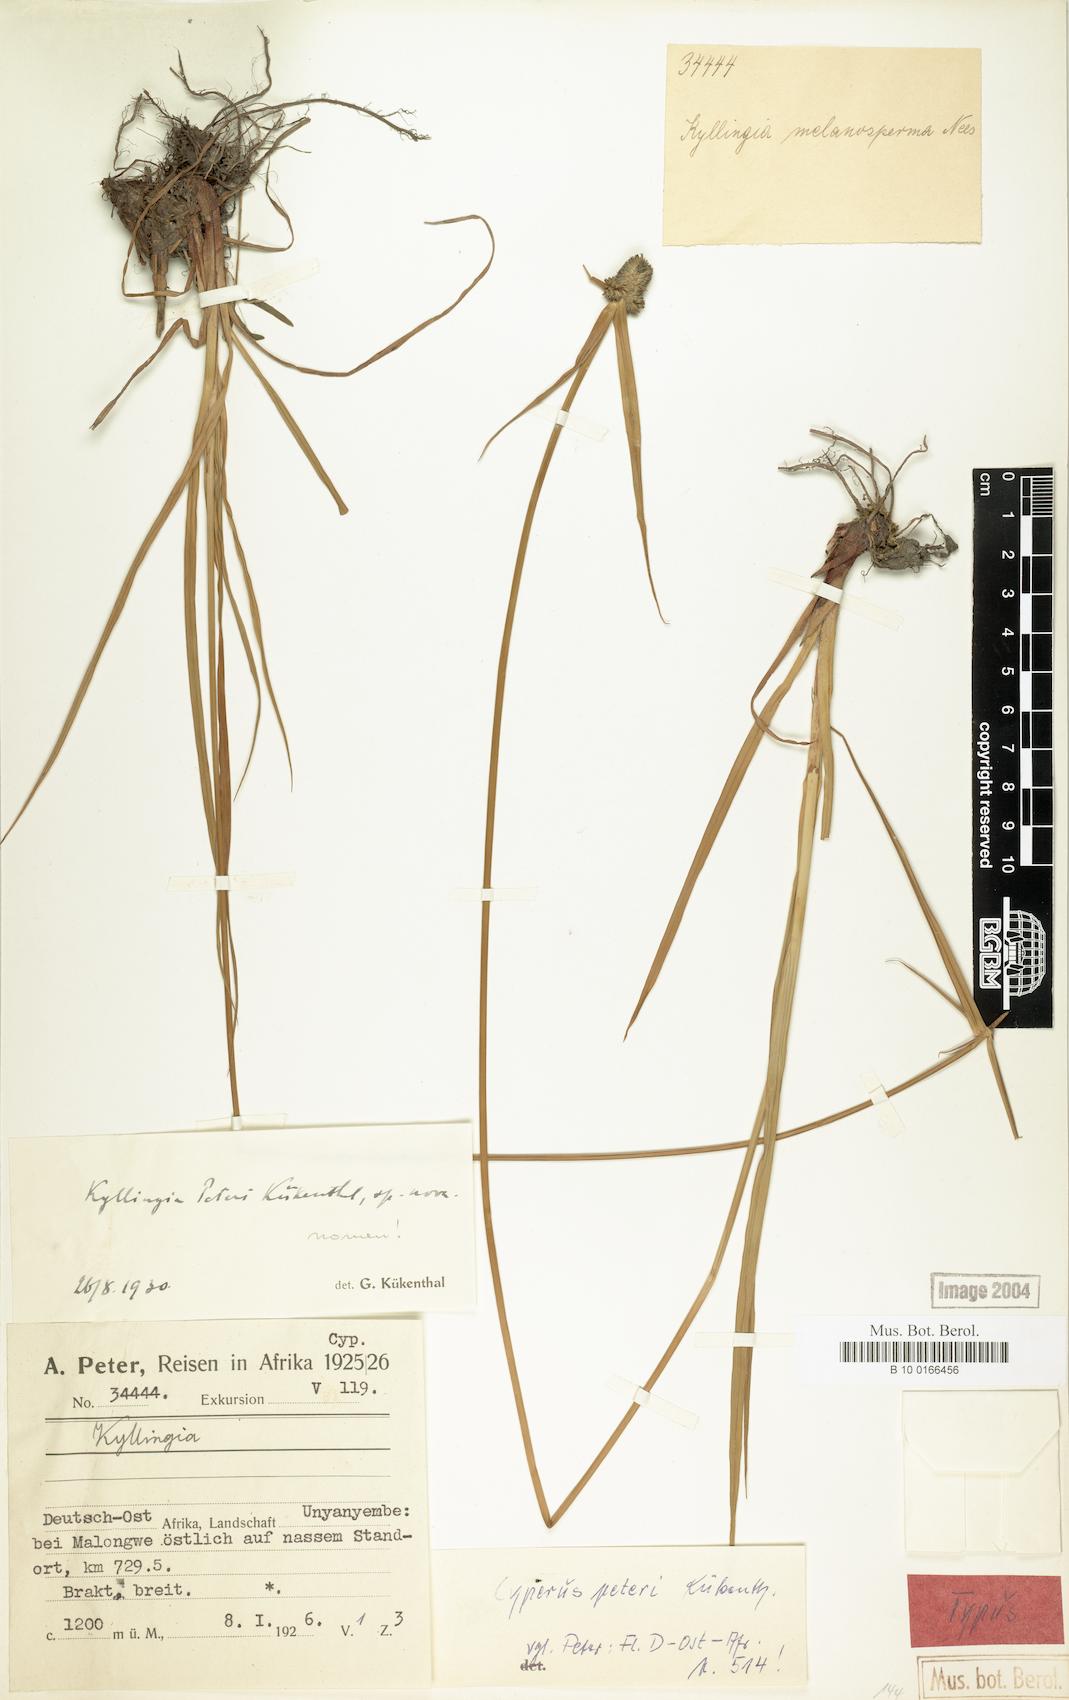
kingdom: Plantae
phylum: Tracheophyta
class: Liliopsida
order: Poales
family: Cyperaceae
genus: Cyperus
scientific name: Cyperus peteri
